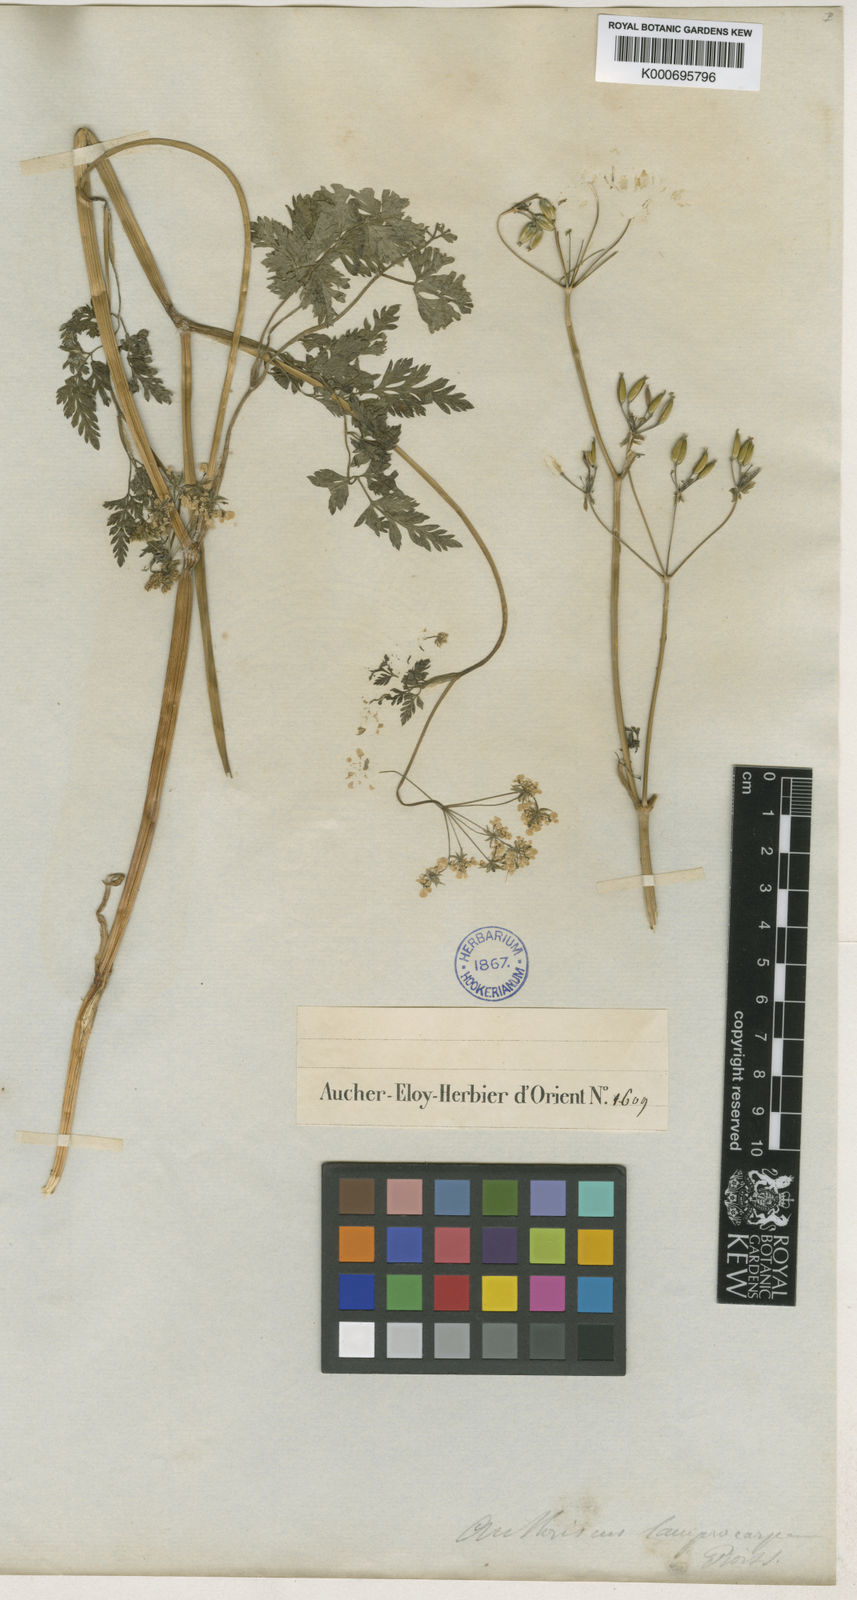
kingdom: Plantae
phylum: Tracheophyta
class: Magnoliopsida
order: Apiales
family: Apiaceae
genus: Anthriscus
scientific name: Anthriscus lamprocarpa
